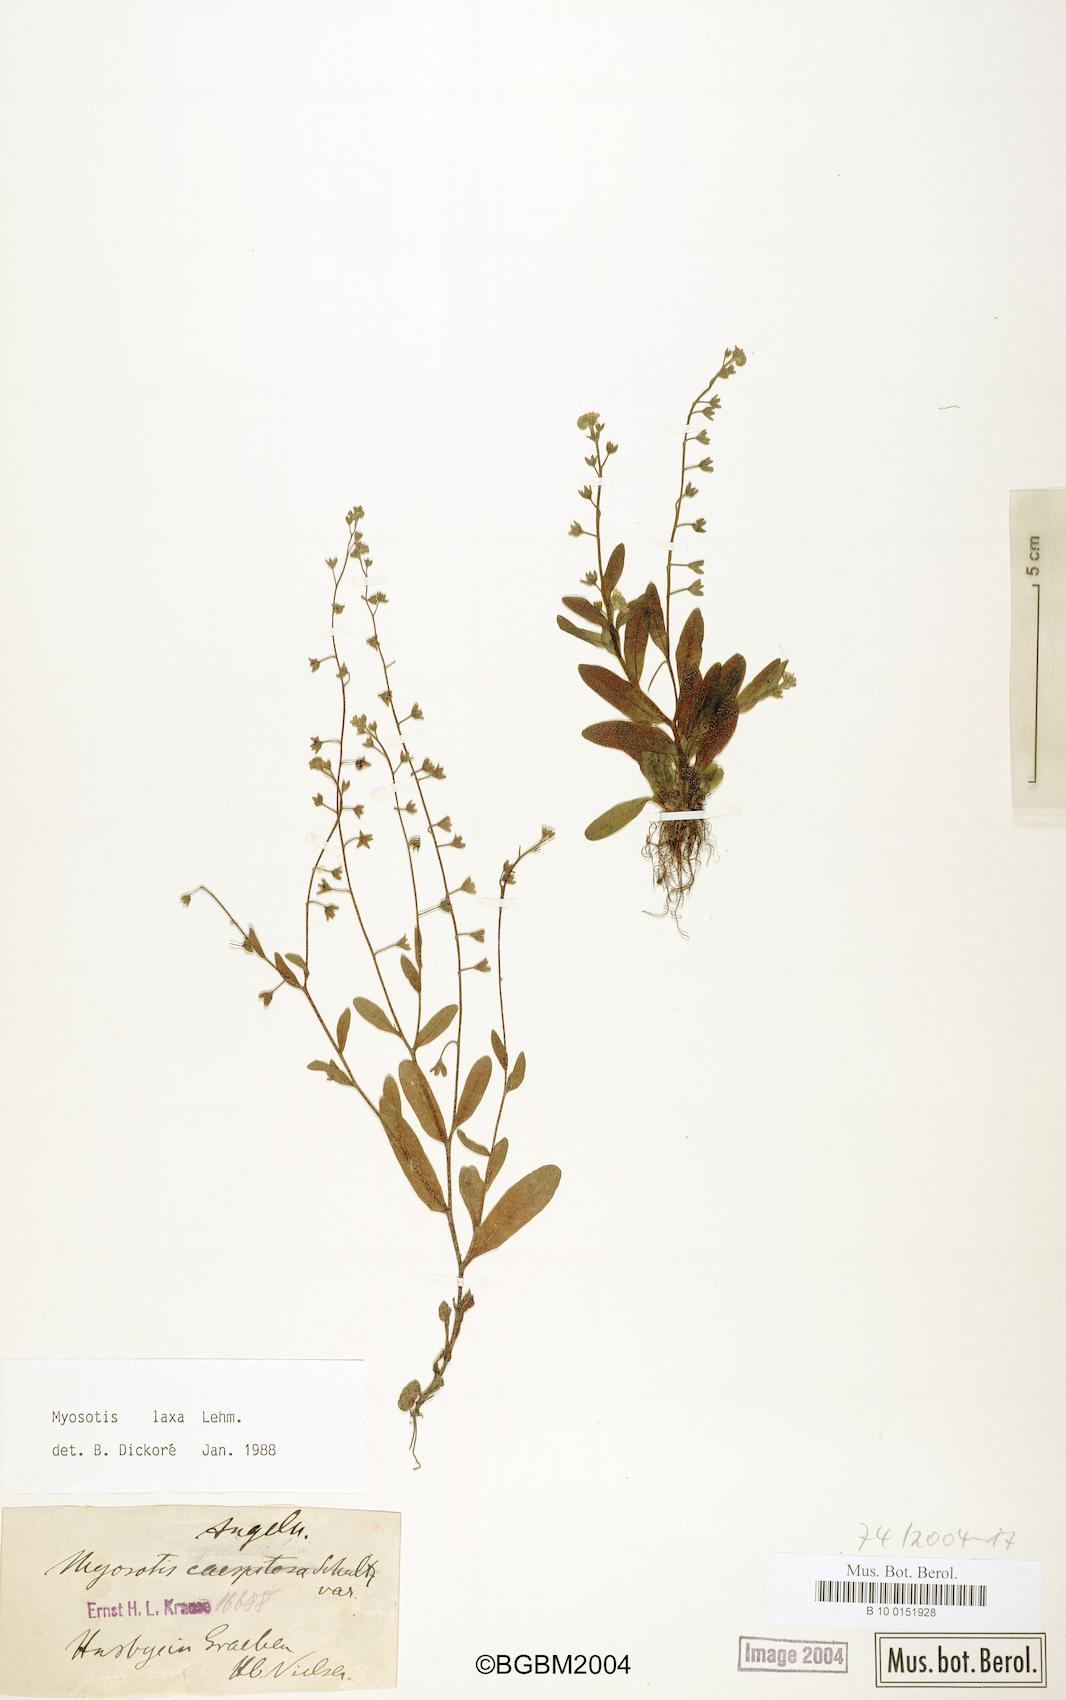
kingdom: Plantae
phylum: Tracheophyta
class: Magnoliopsida
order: Boraginales
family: Boraginaceae
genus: Myosotis
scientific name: Myosotis laxa
